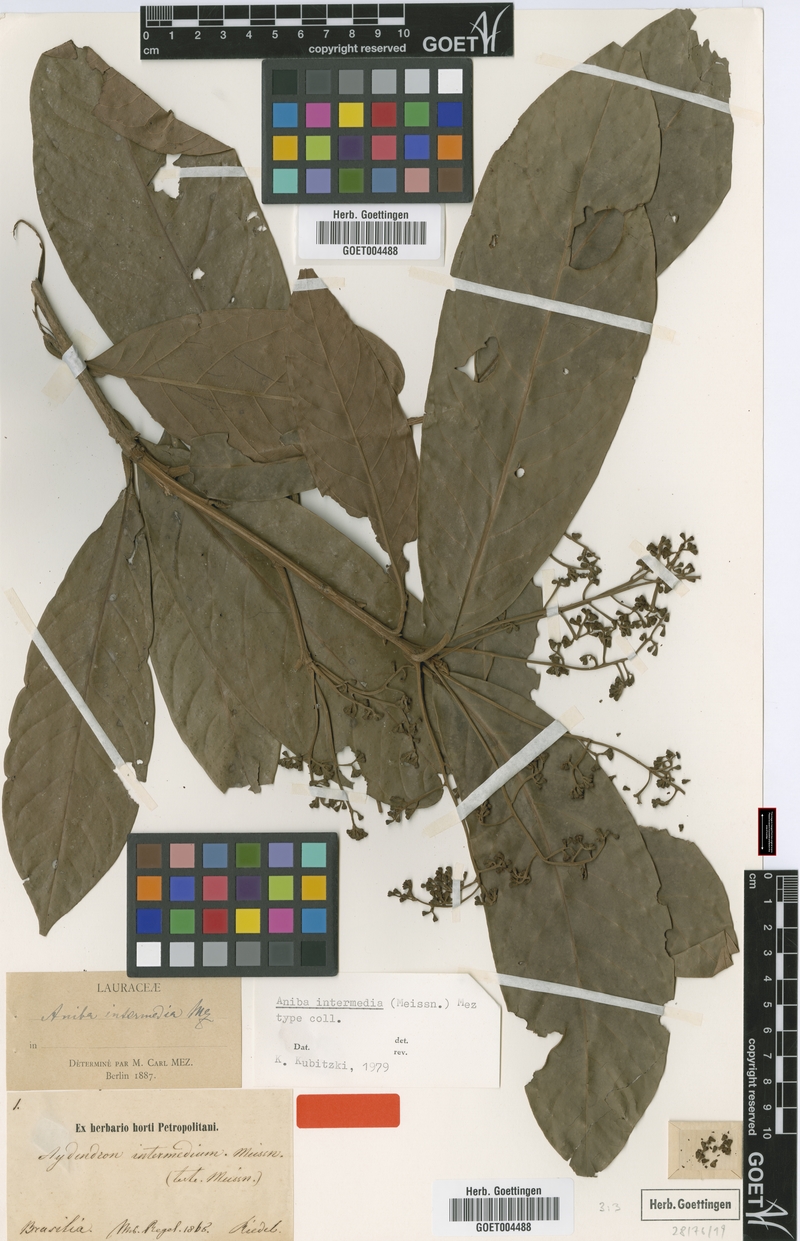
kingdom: Plantae
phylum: Tracheophyta
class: Magnoliopsida
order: Laurales
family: Lauraceae
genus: Aniba
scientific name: Aniba intermedia
